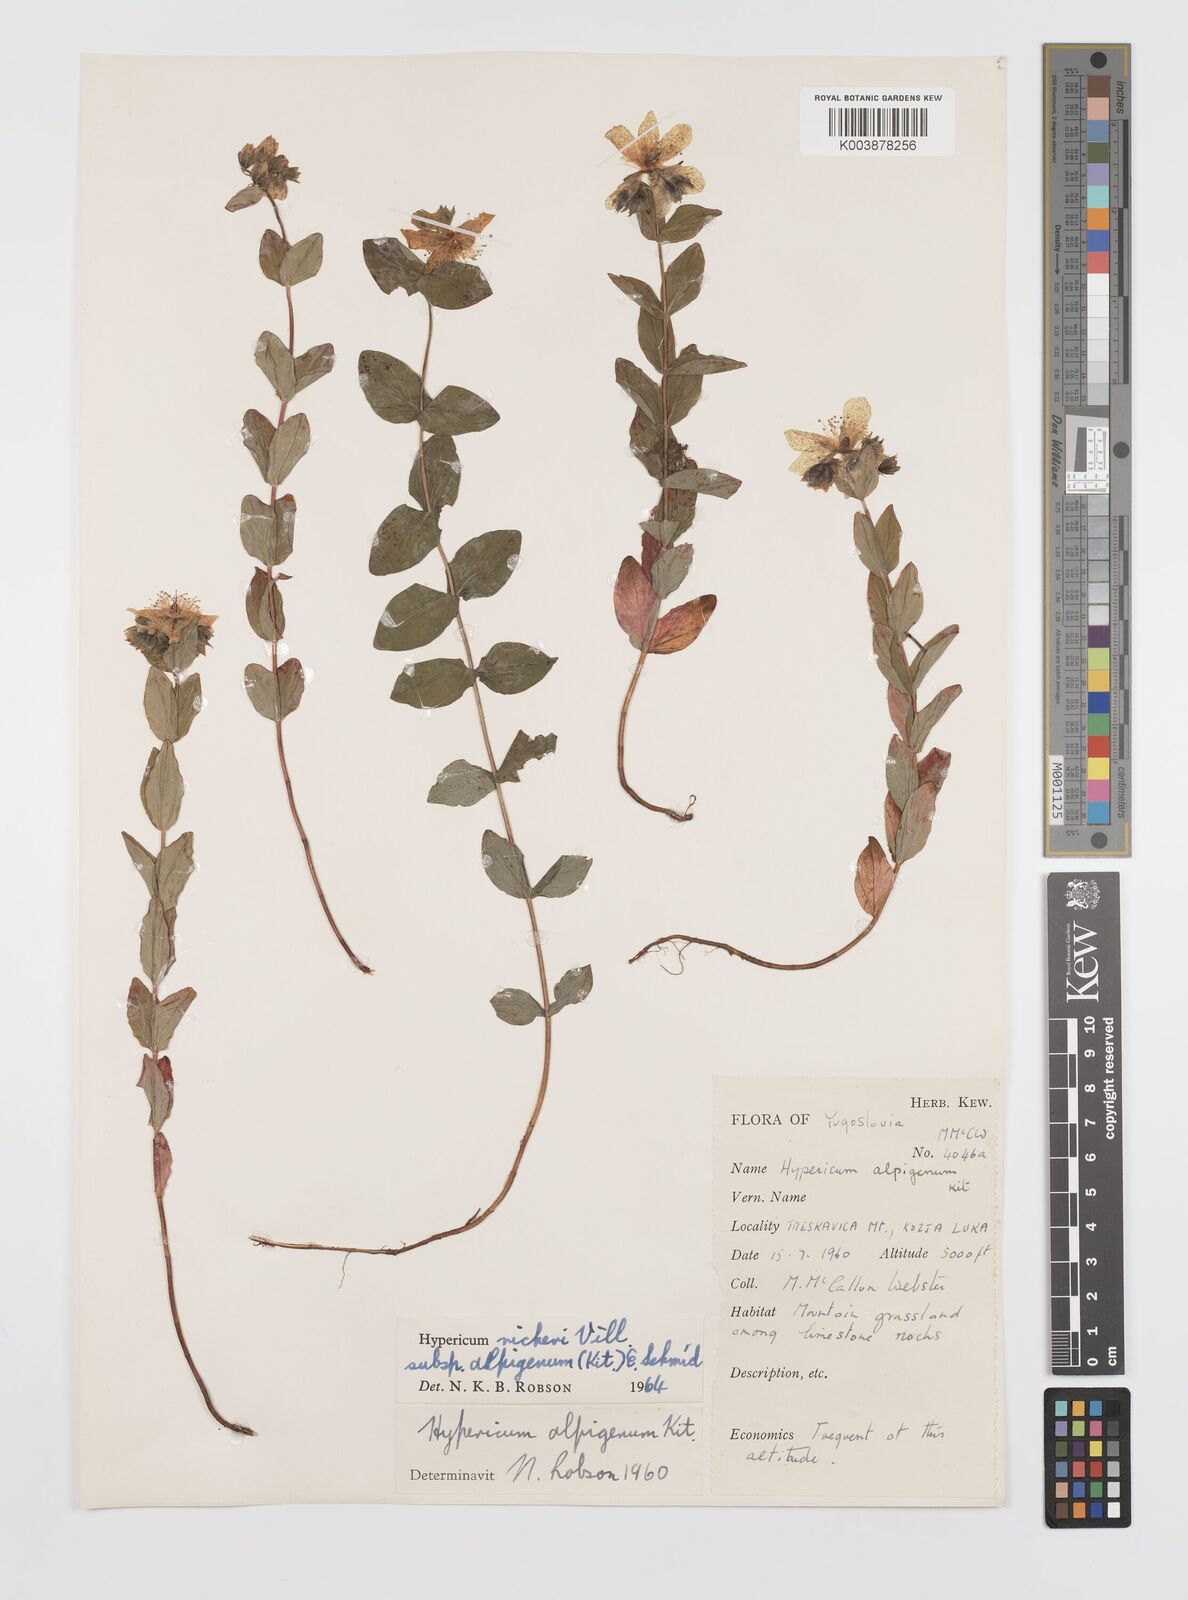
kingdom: Plantae
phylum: Tracheophyta
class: Magnoliopsida
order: Malpighiales
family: Hypericaceae
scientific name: Hypericaceae
